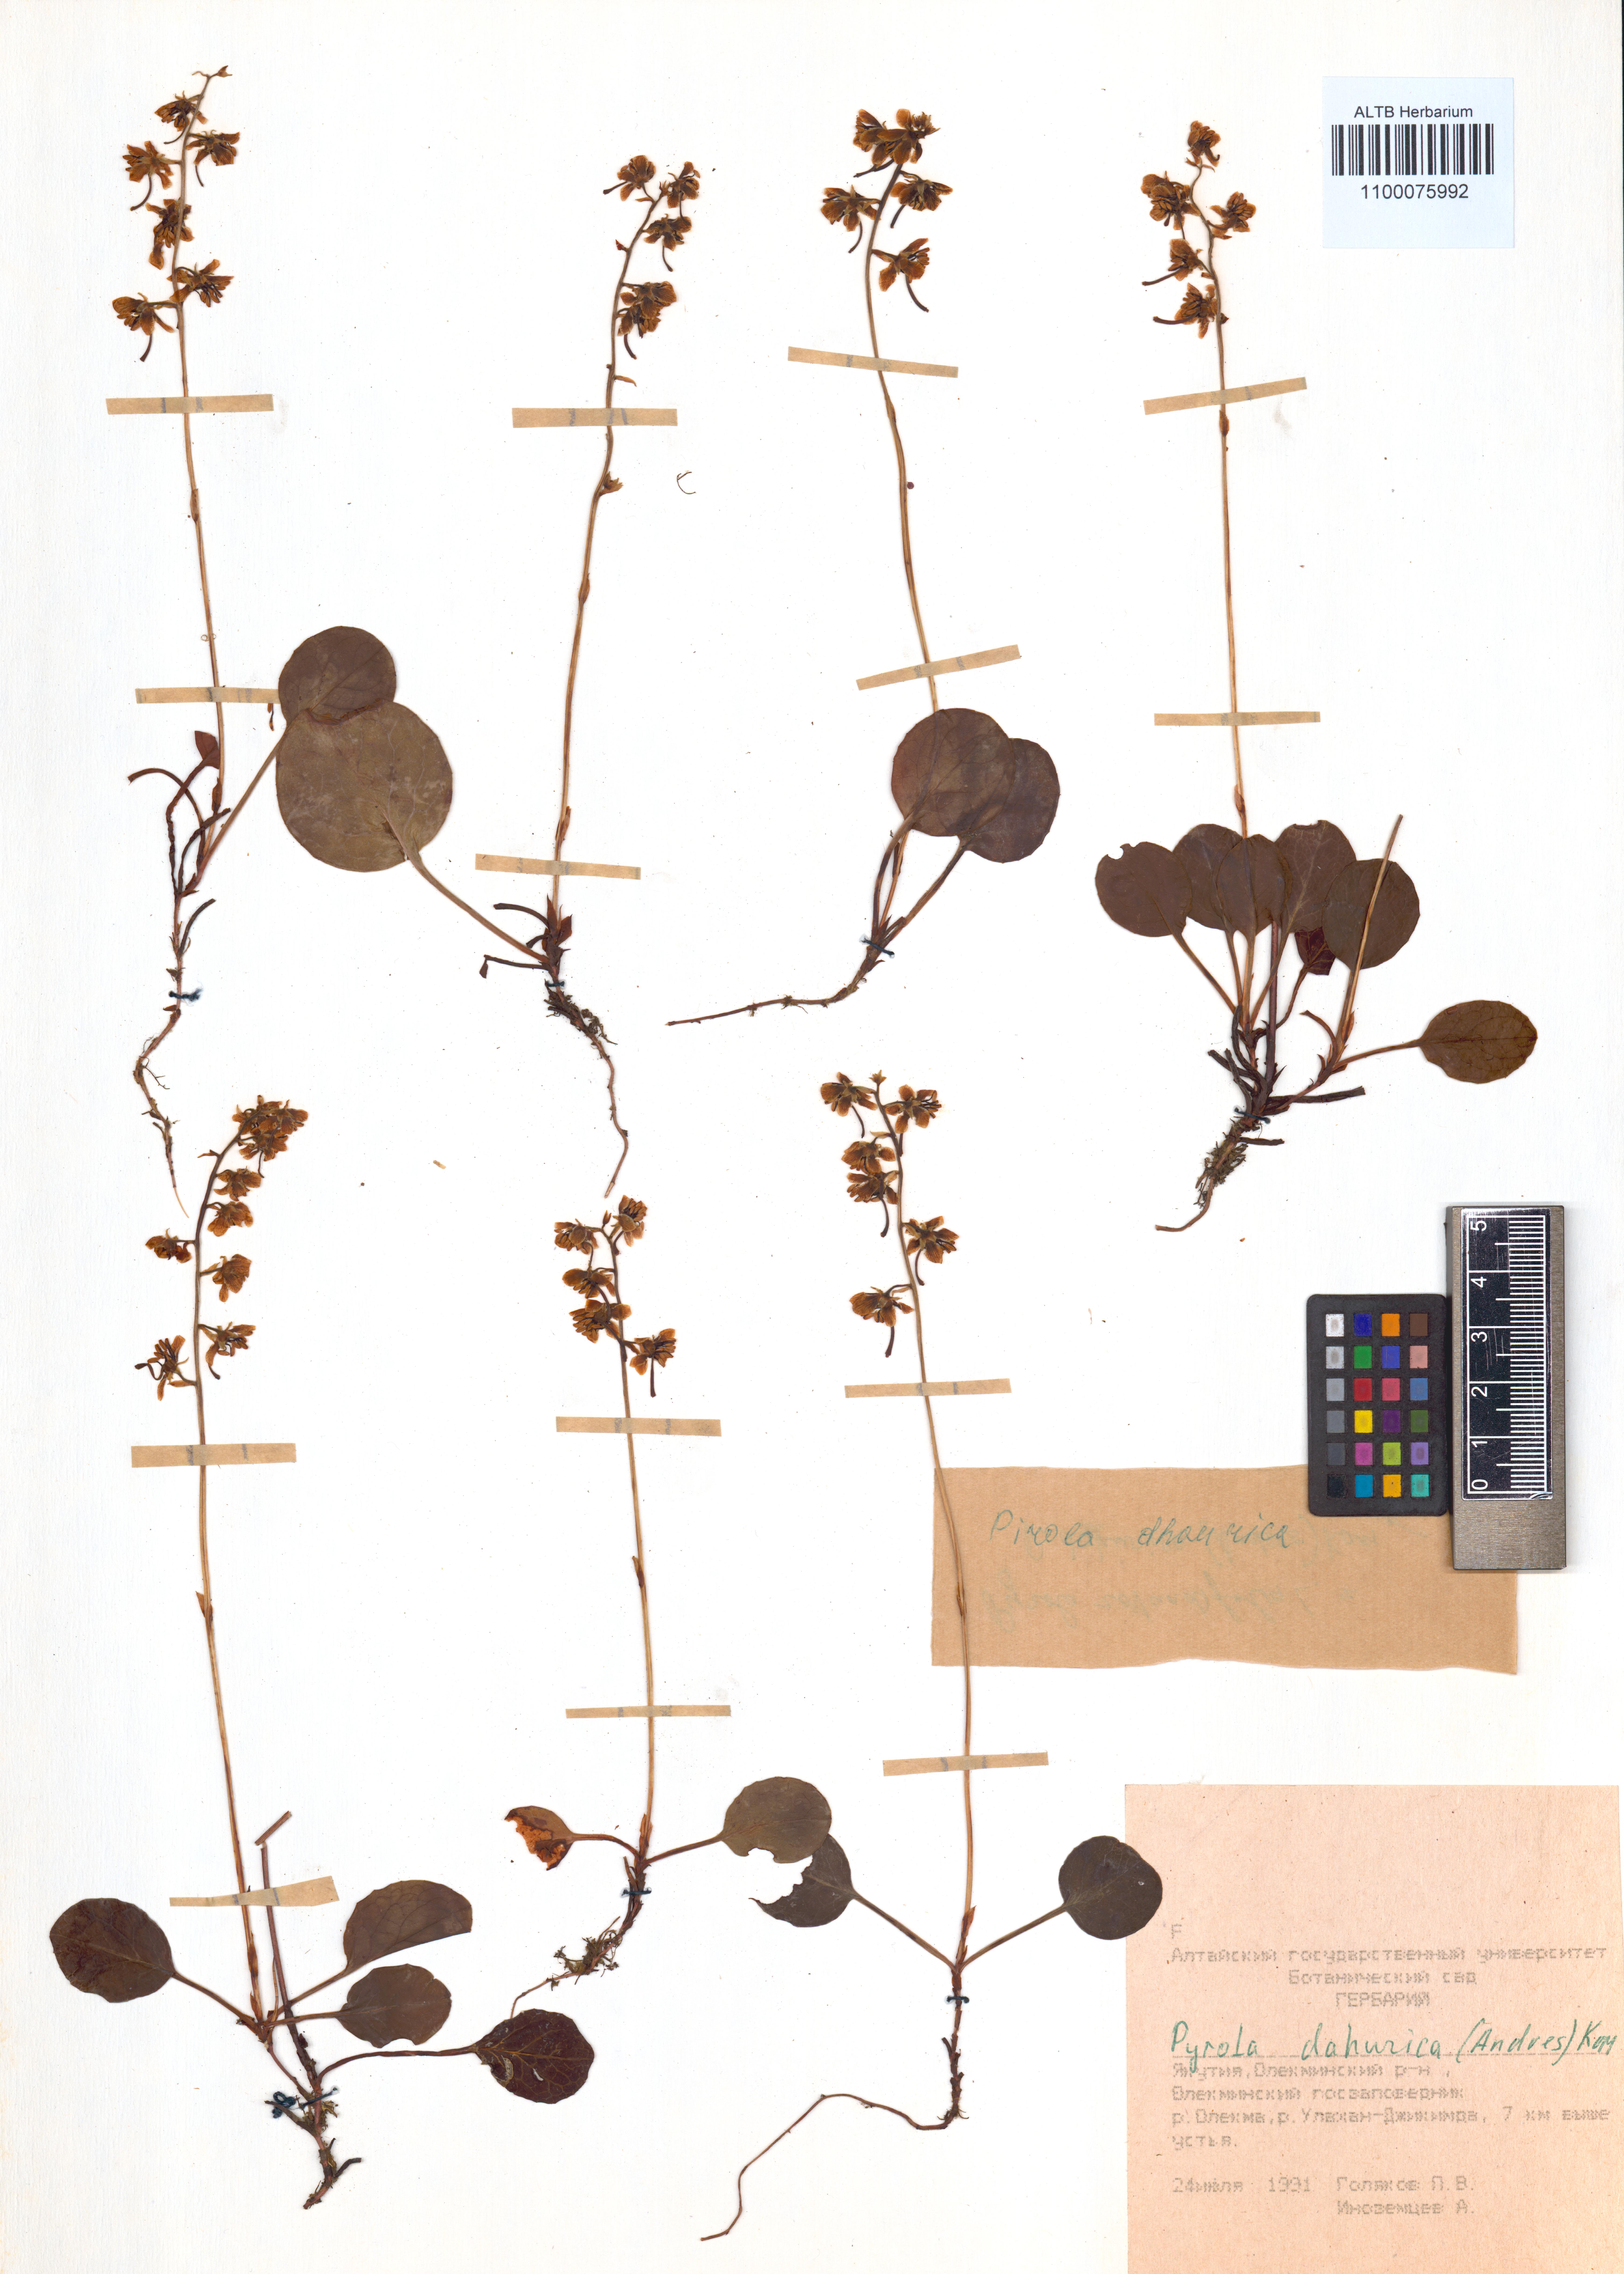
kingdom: Plantae
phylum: Tracheophyta
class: Magnoliopsida
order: Ericales
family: Ericaceae
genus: Pyrola
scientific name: Pyrola dahurica
